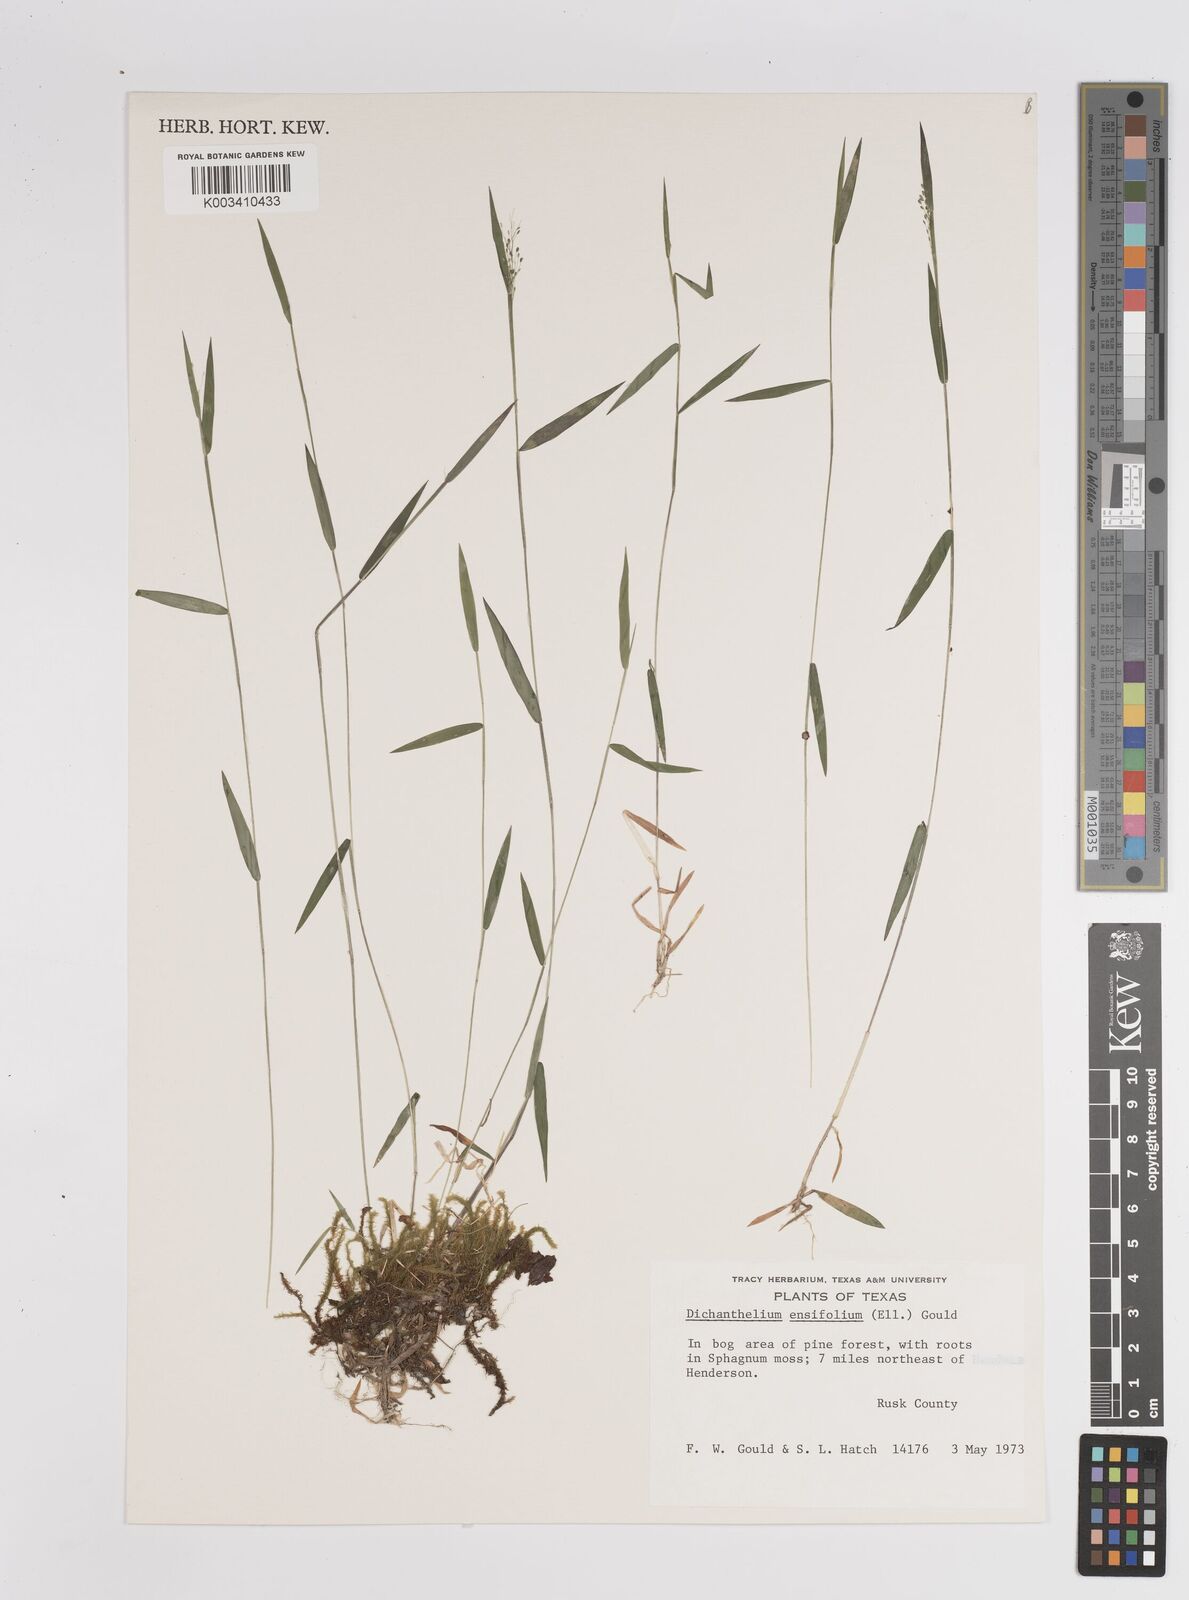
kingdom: Plantae
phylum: Tracheophyta
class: Liliopsida
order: Poales
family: Poaceae
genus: Dichanthelium
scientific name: Dichanthelium ensifolium
